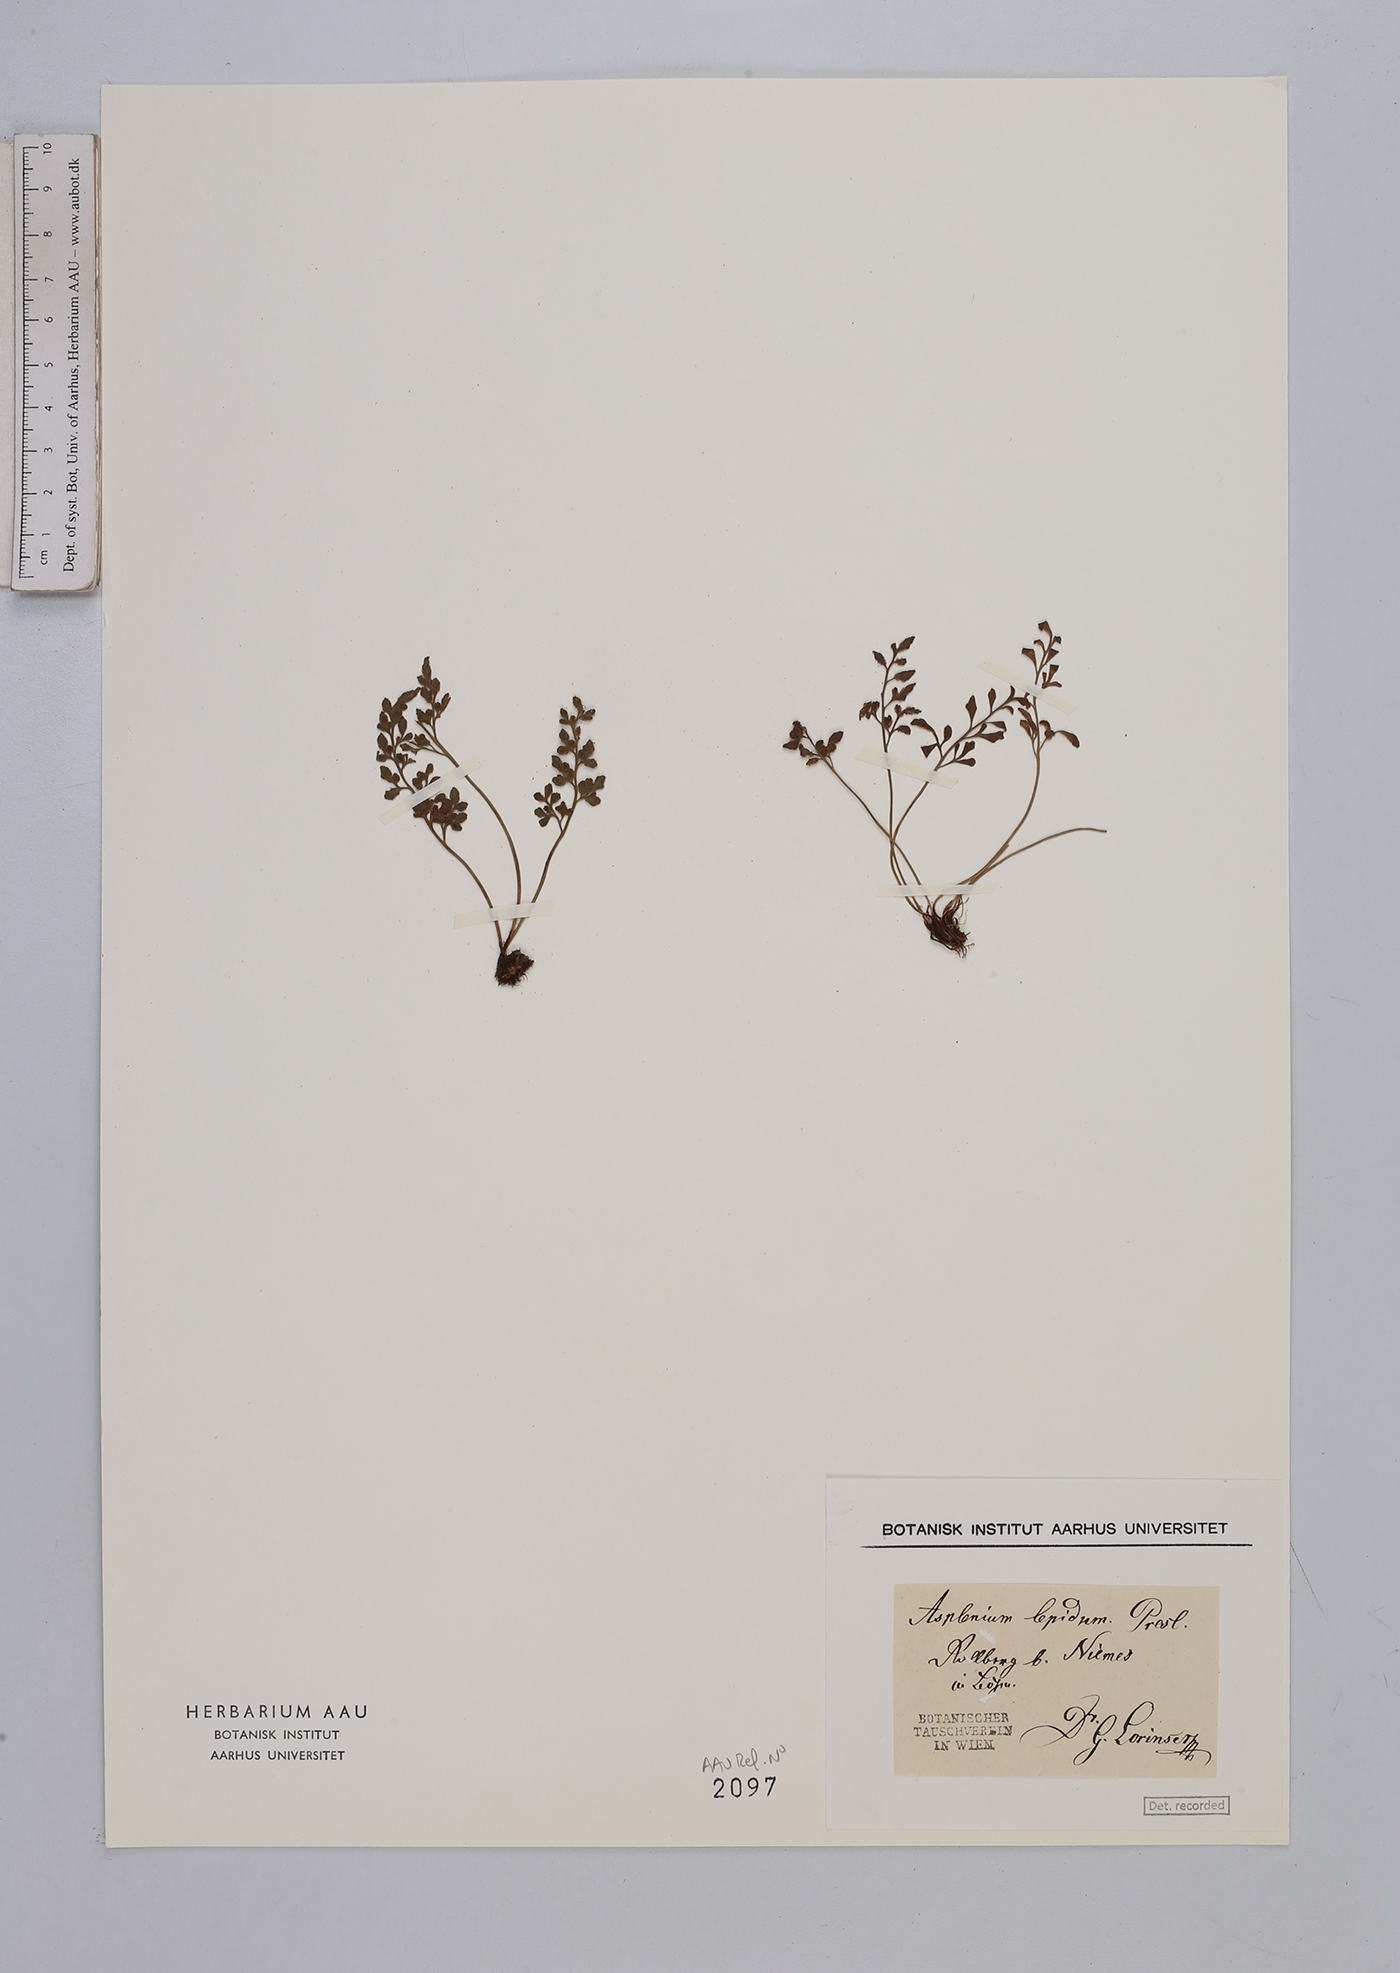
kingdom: Plantae
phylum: Tracheophyta
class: Polypodiopsida
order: Polypodiales
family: Aspleniaceae
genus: Asplenium
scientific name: Asplenium ruta-muraria
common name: Wall-rue
